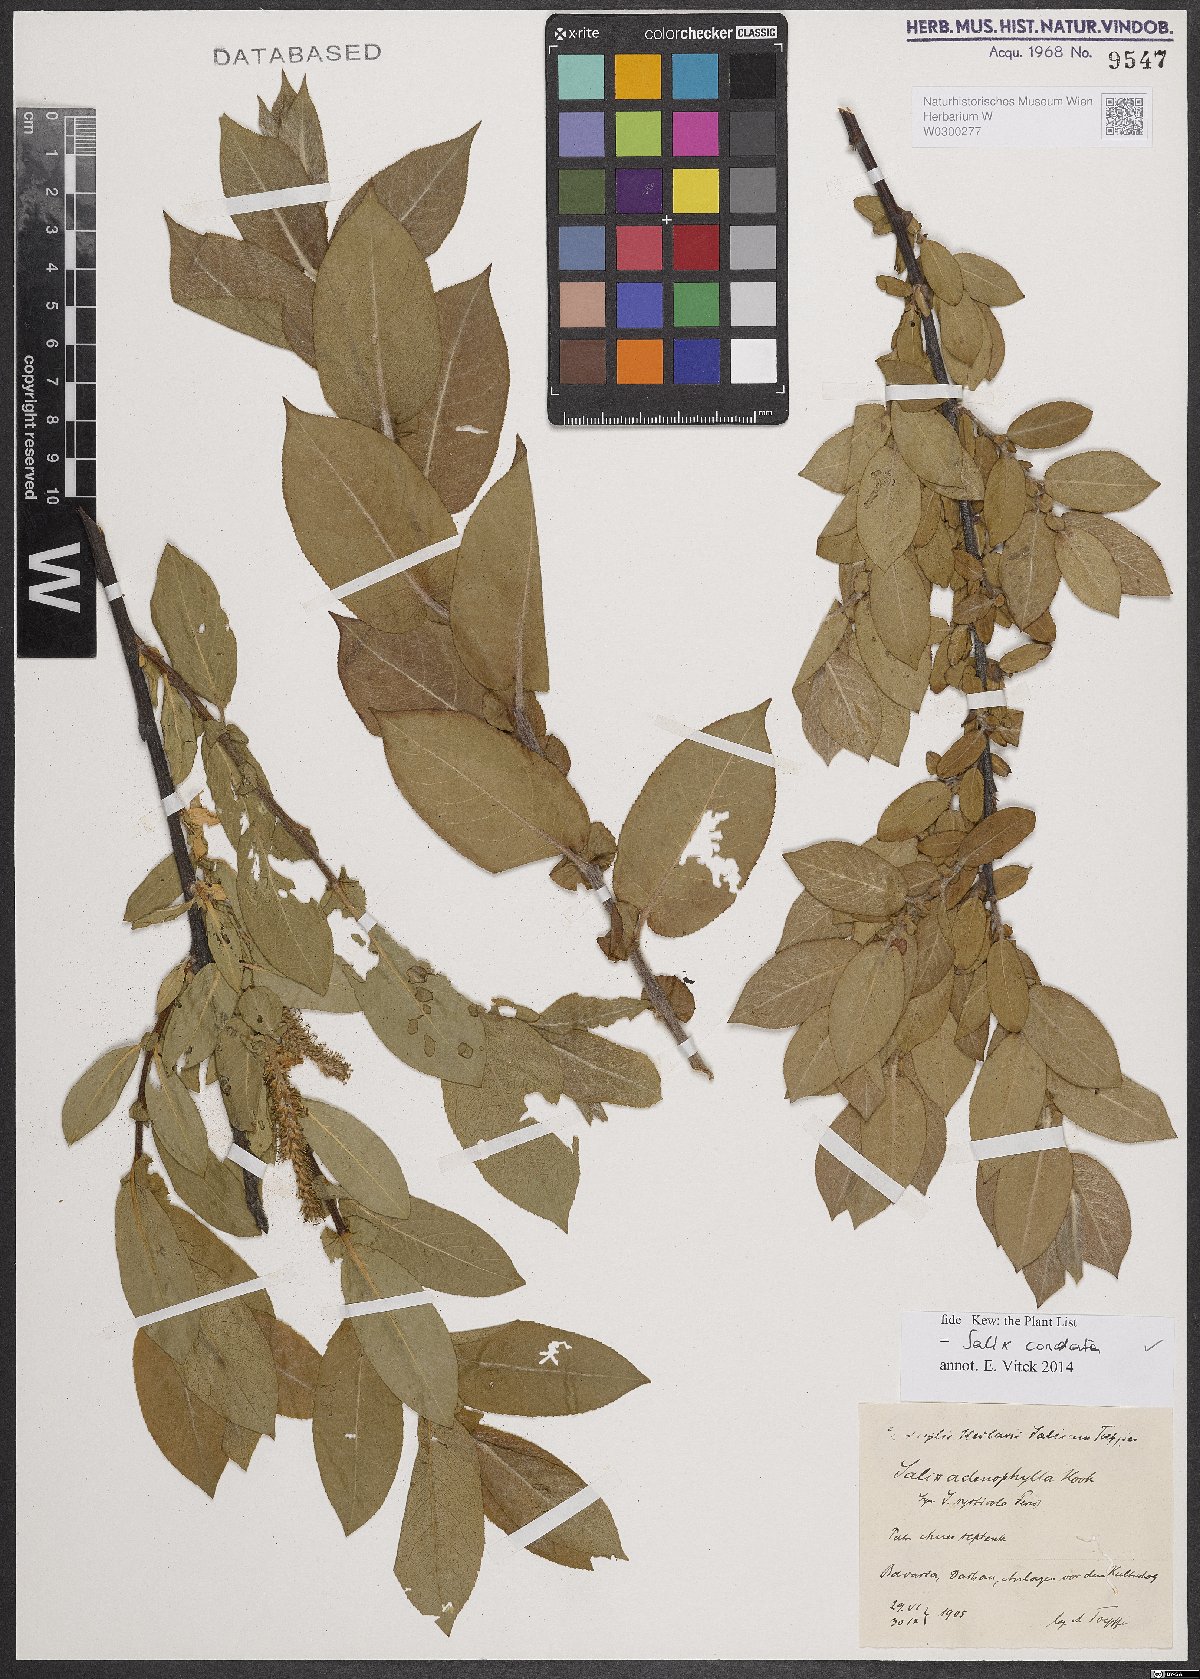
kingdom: Plantae
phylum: Tracheophyta
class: Magnoliopsida
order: Malpighiales
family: Salicaceae
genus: Salix
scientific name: Salix cordata
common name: Heart-leaf willow
